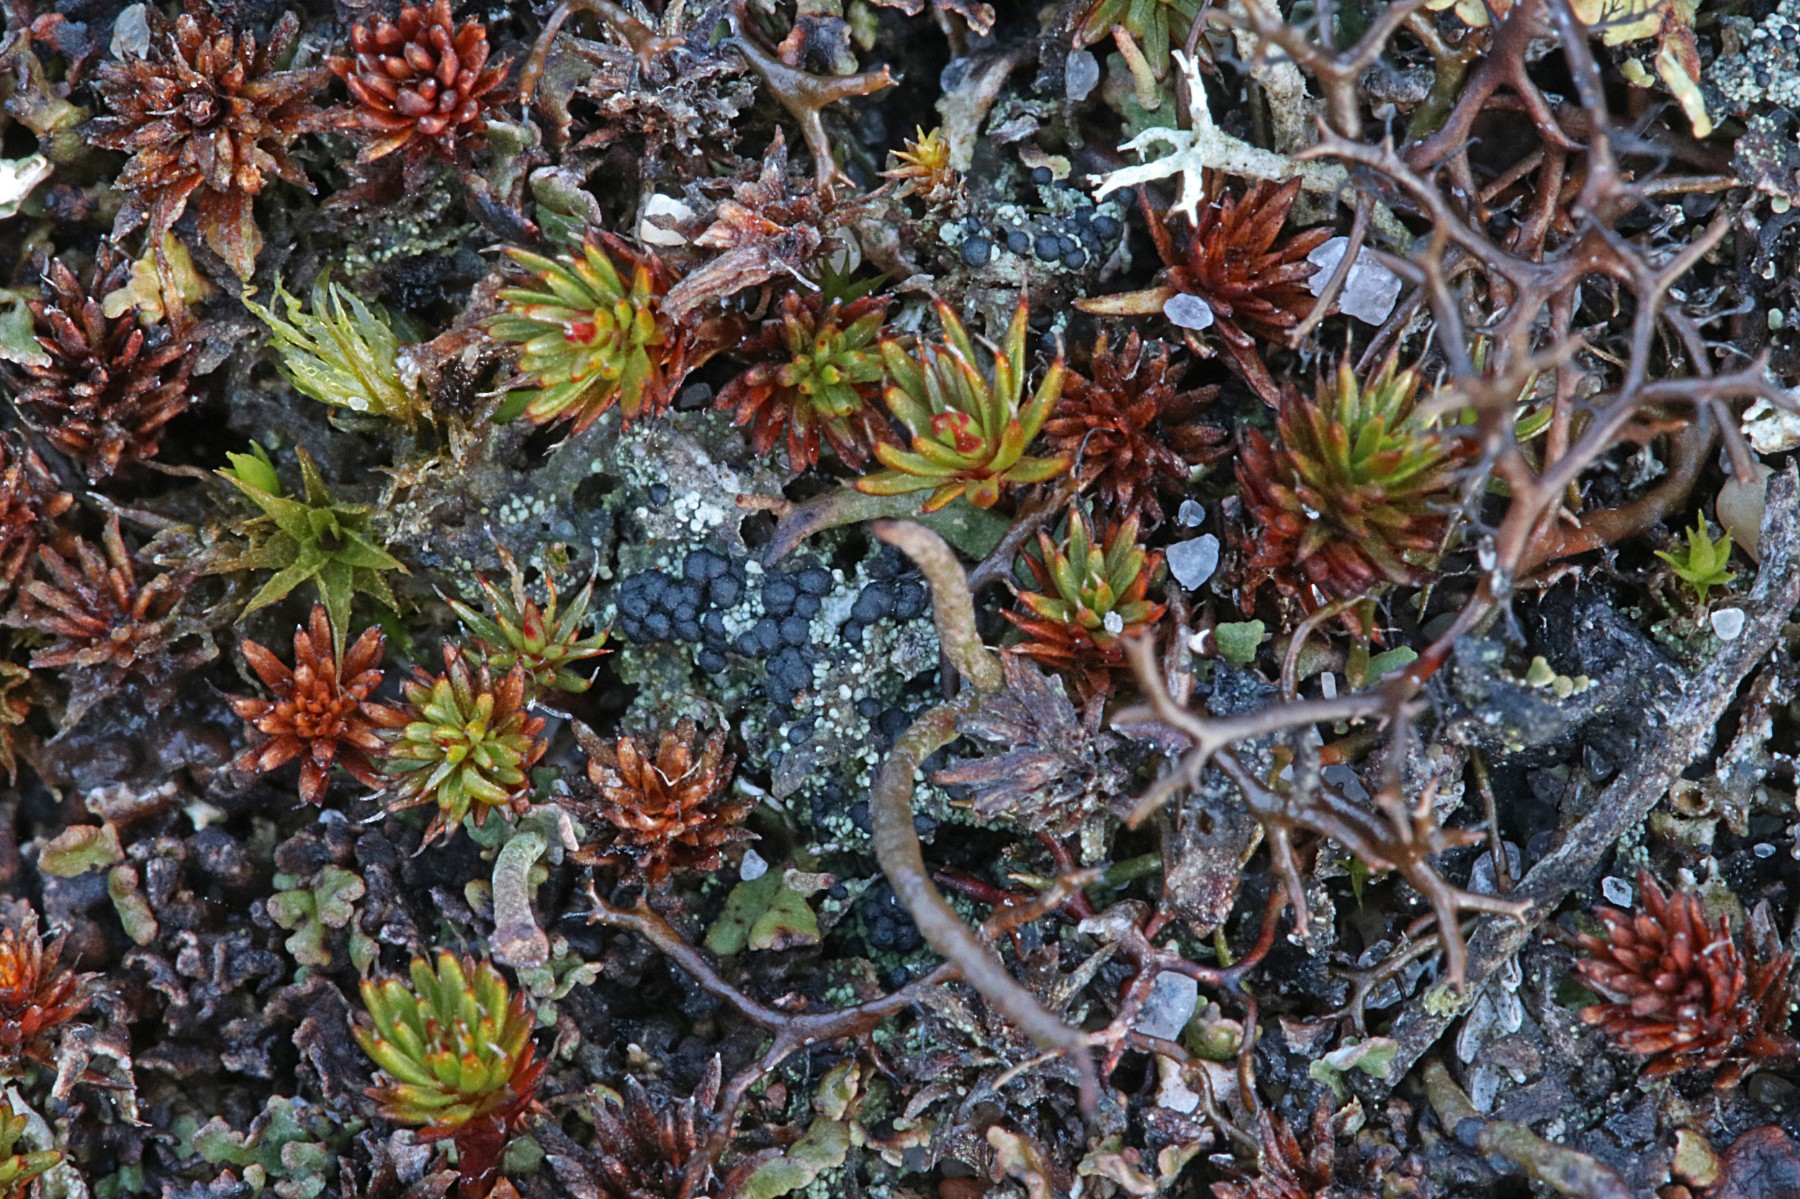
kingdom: Fungi
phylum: Ascomycota
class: Lecanoromycetes
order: Lecanorales
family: Byssolomataceae
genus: Micarea
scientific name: Micarea lignaria
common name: tørve-knaplav
